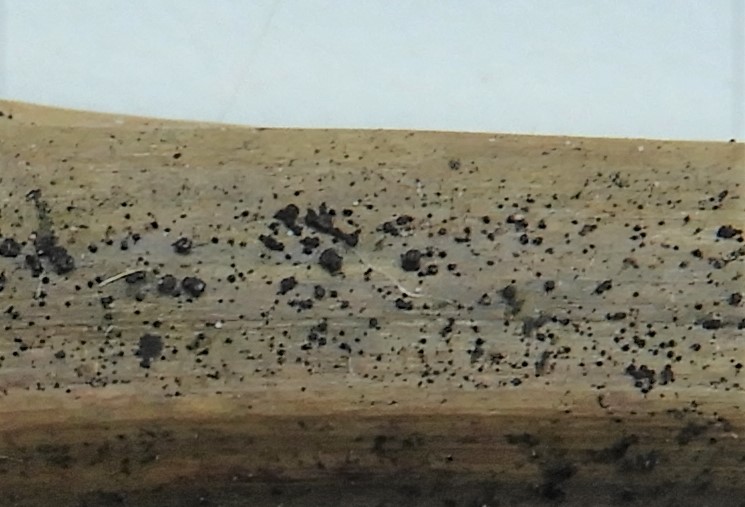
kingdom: Fungi
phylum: Ascomycota
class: Leotiomycetes
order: Helotiales
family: Ploettnerulaceae
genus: Pyrenopeziza
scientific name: Pyrenopeziza millegrana
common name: mjødurt-kerneskive
